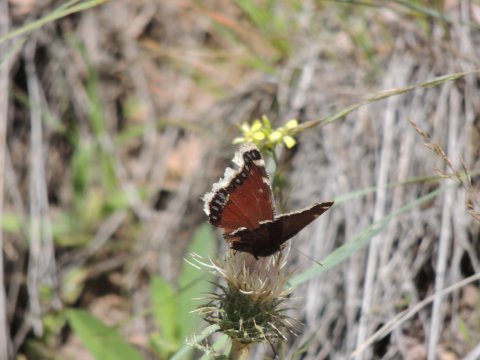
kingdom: Animalia
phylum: Arthropoda
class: Insecta
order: Lepidoptera
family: Nymphalidae
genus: Nymphalis
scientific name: Nymphalis antiopa
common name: Mourning Cloak
